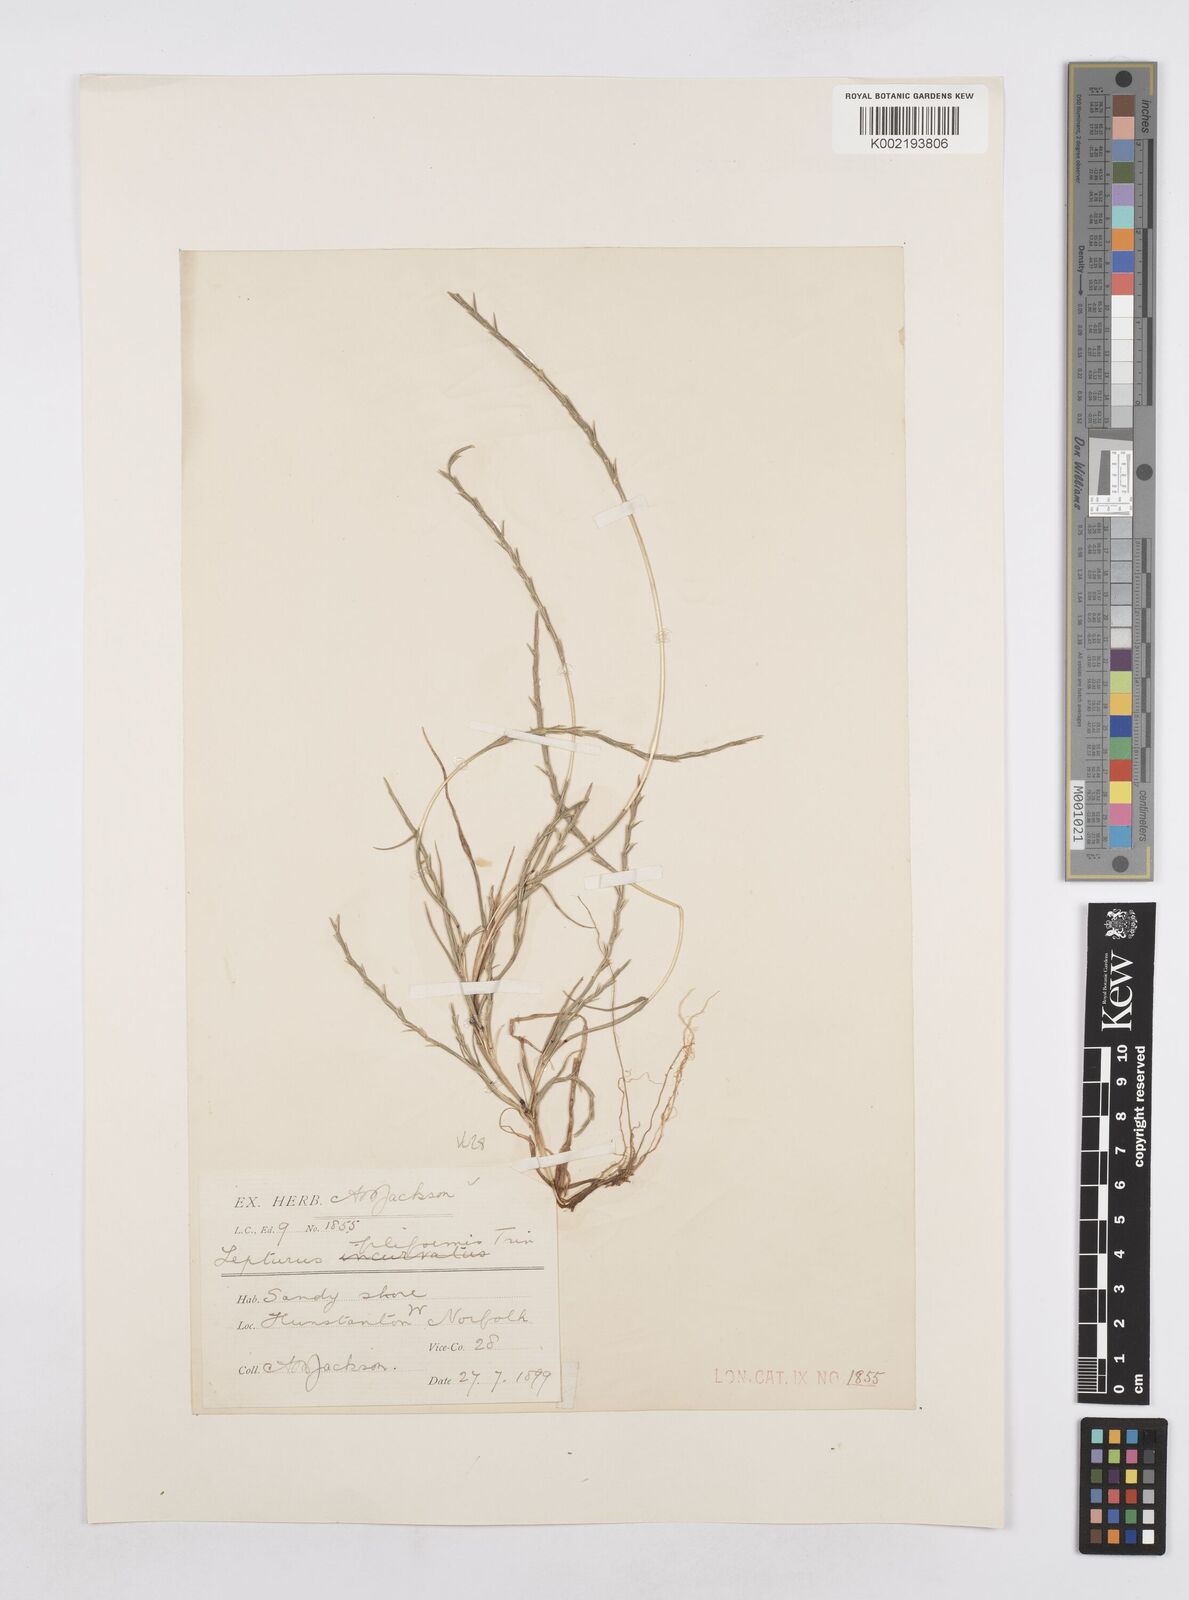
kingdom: Plantae
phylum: Tracheophyta
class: Liliopsida
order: Poales
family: Poaceae
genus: Parapholis
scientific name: Parapholis strigosa
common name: Hard-grass
